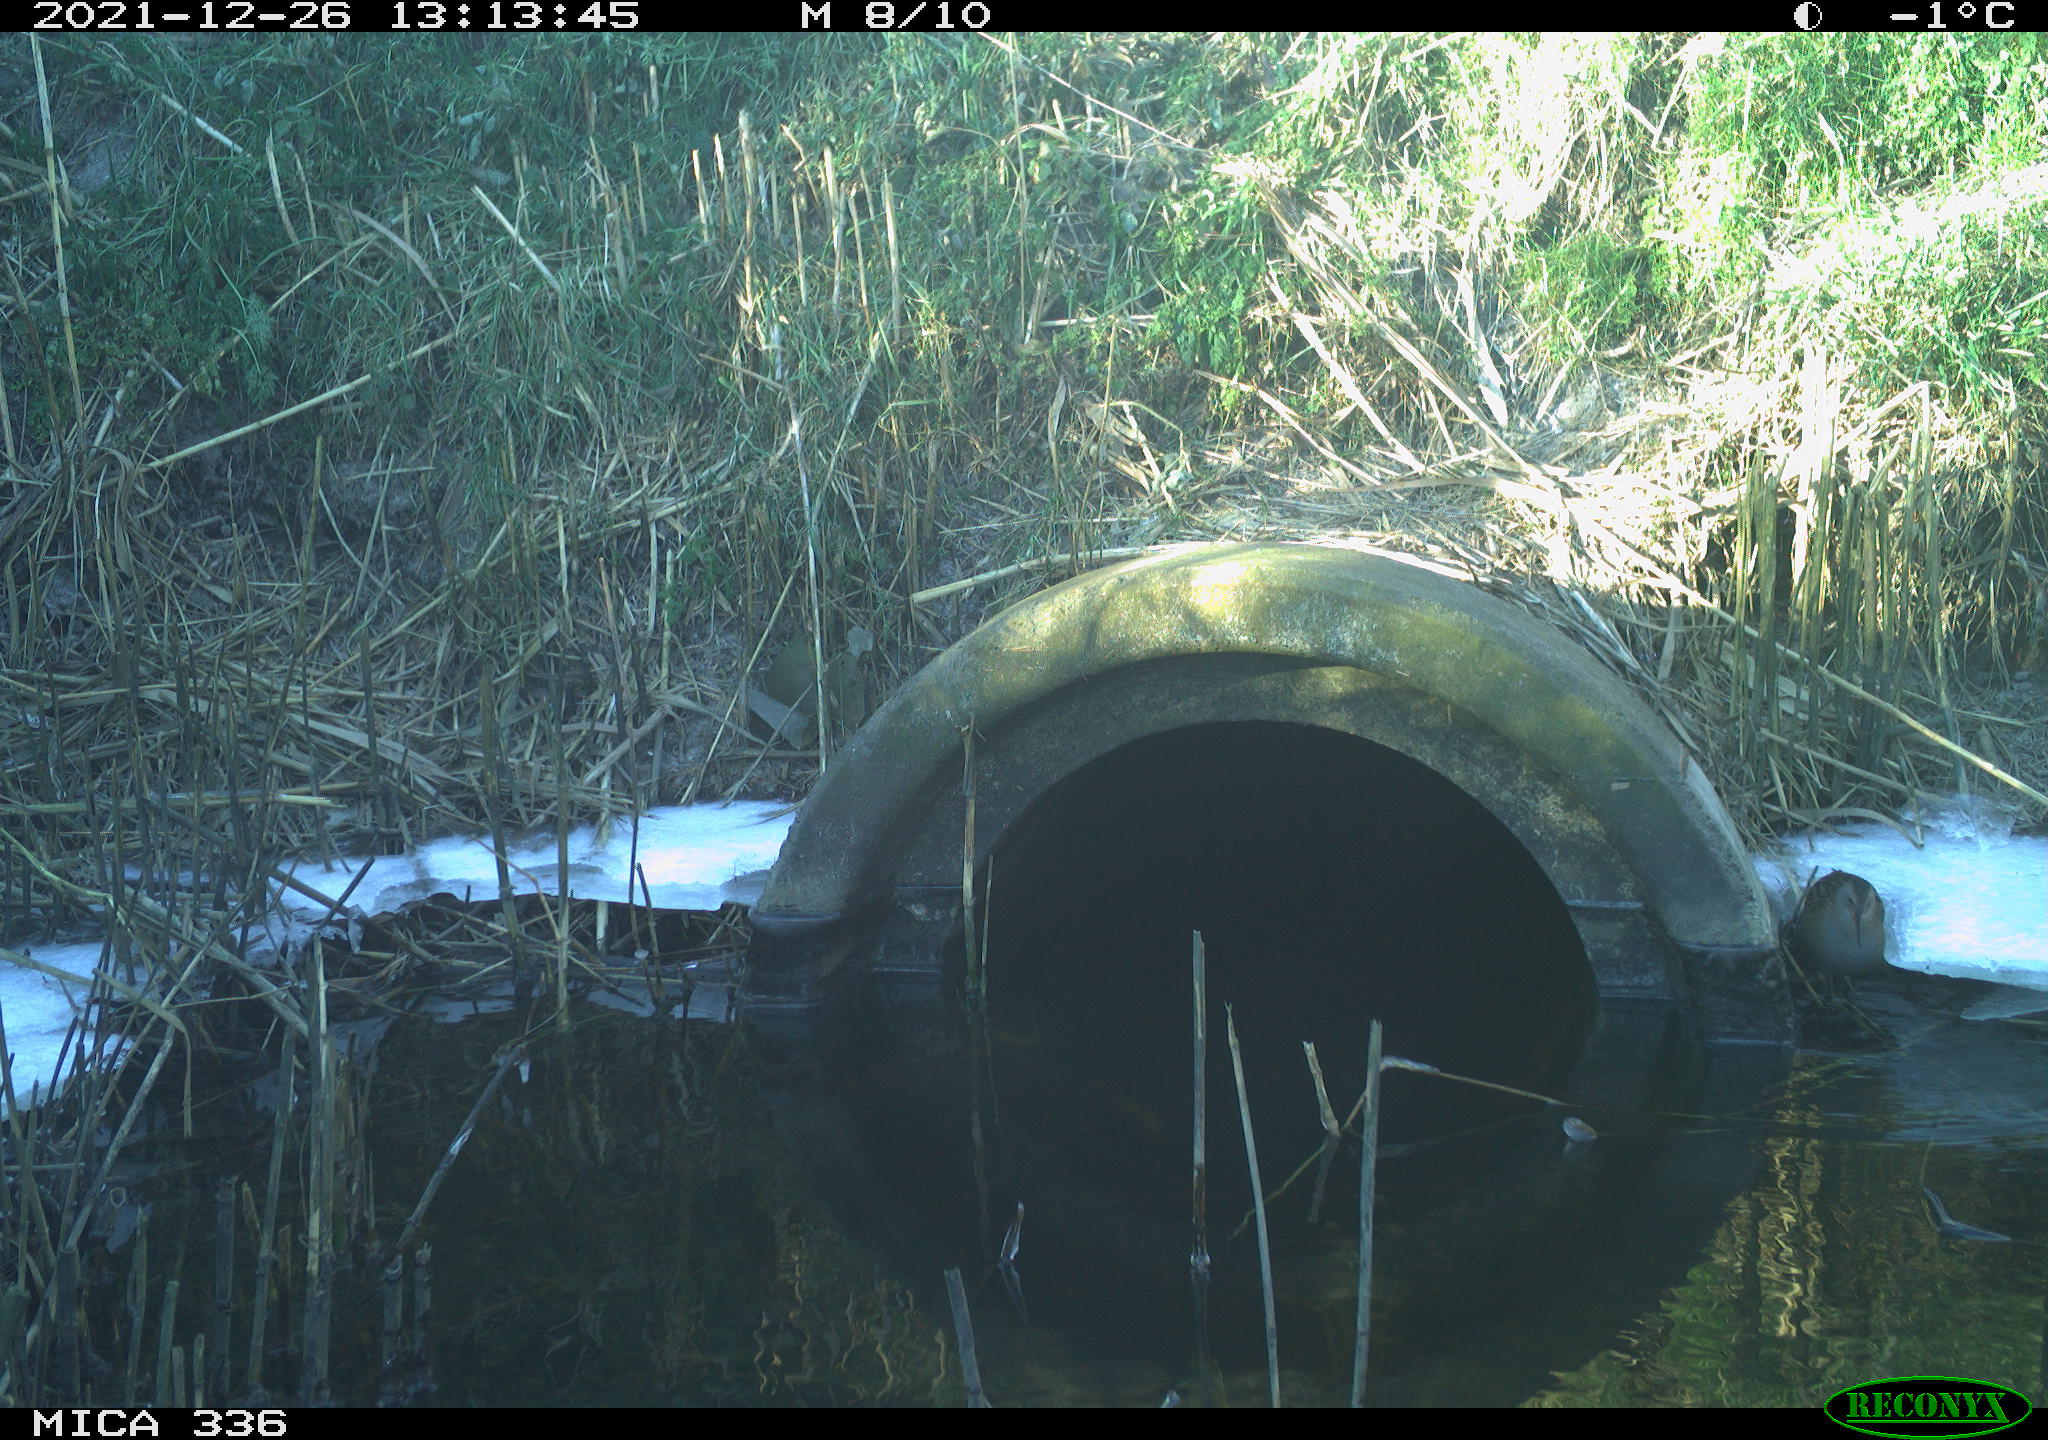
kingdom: Animalia
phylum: Chordata
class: Aves
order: Gruiformes
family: Rallidae
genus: Gallinula
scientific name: Gallinula chloropus
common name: Common moorhen
